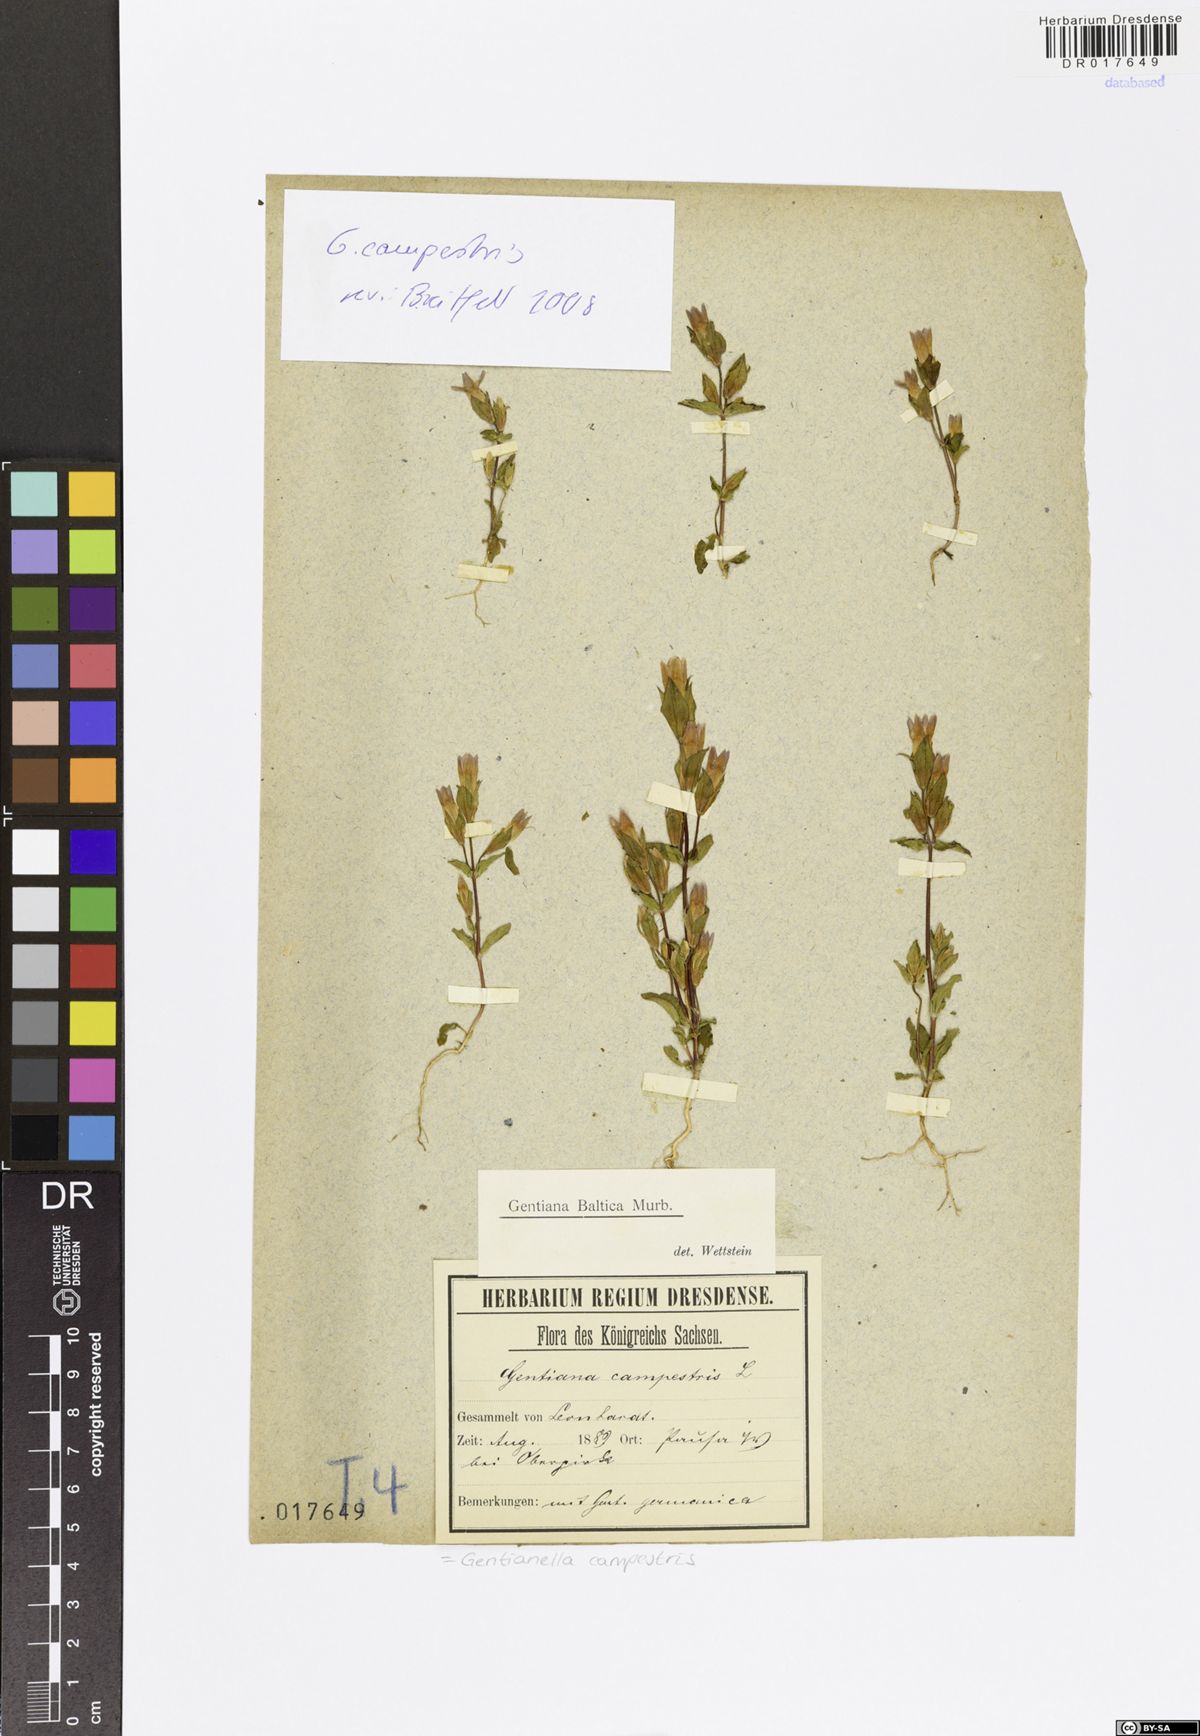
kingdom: Plantae
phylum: Tracheophyta
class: Magnoliopsida
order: Gentianales
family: Gentianaceae
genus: Gentianella
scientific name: Gentianella campestris
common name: Field gentian
